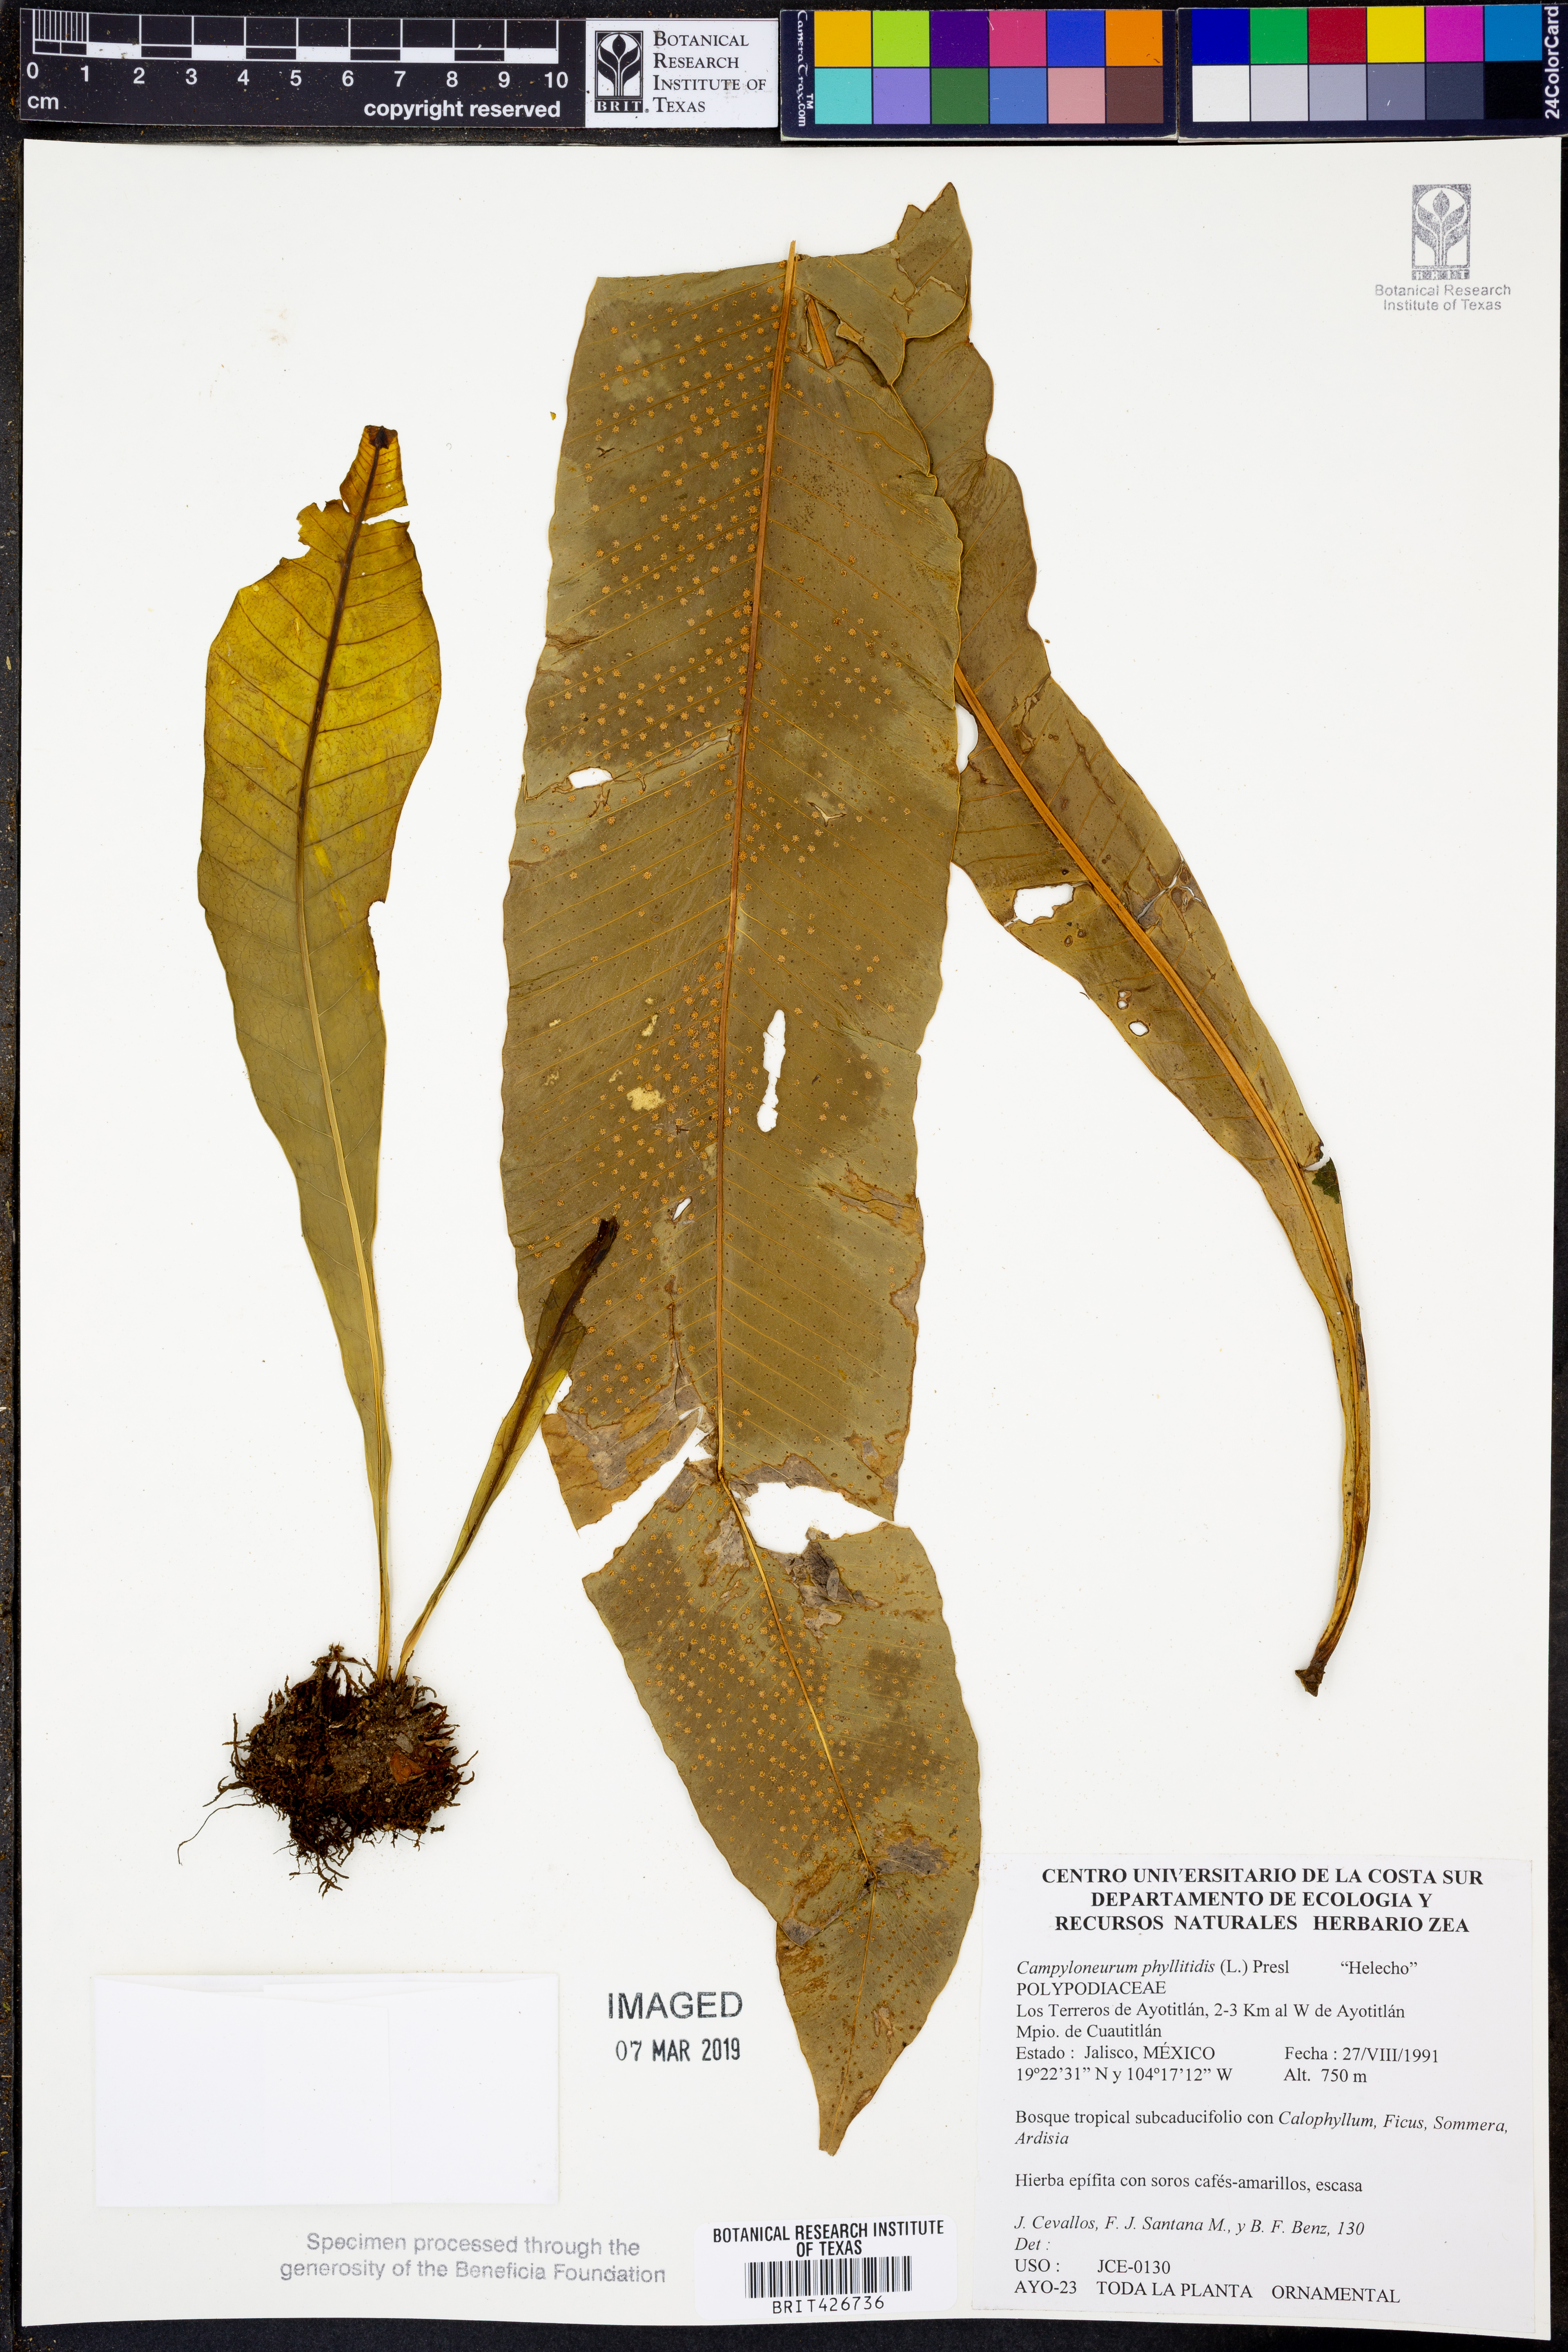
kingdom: Plantae
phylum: Tracheophyta
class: Polypodiopsida
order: Polypodiales
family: Polypodiaceae
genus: Campyloneurum
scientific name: Campyloneurum phyllitidis
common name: Cow-tongue fern
